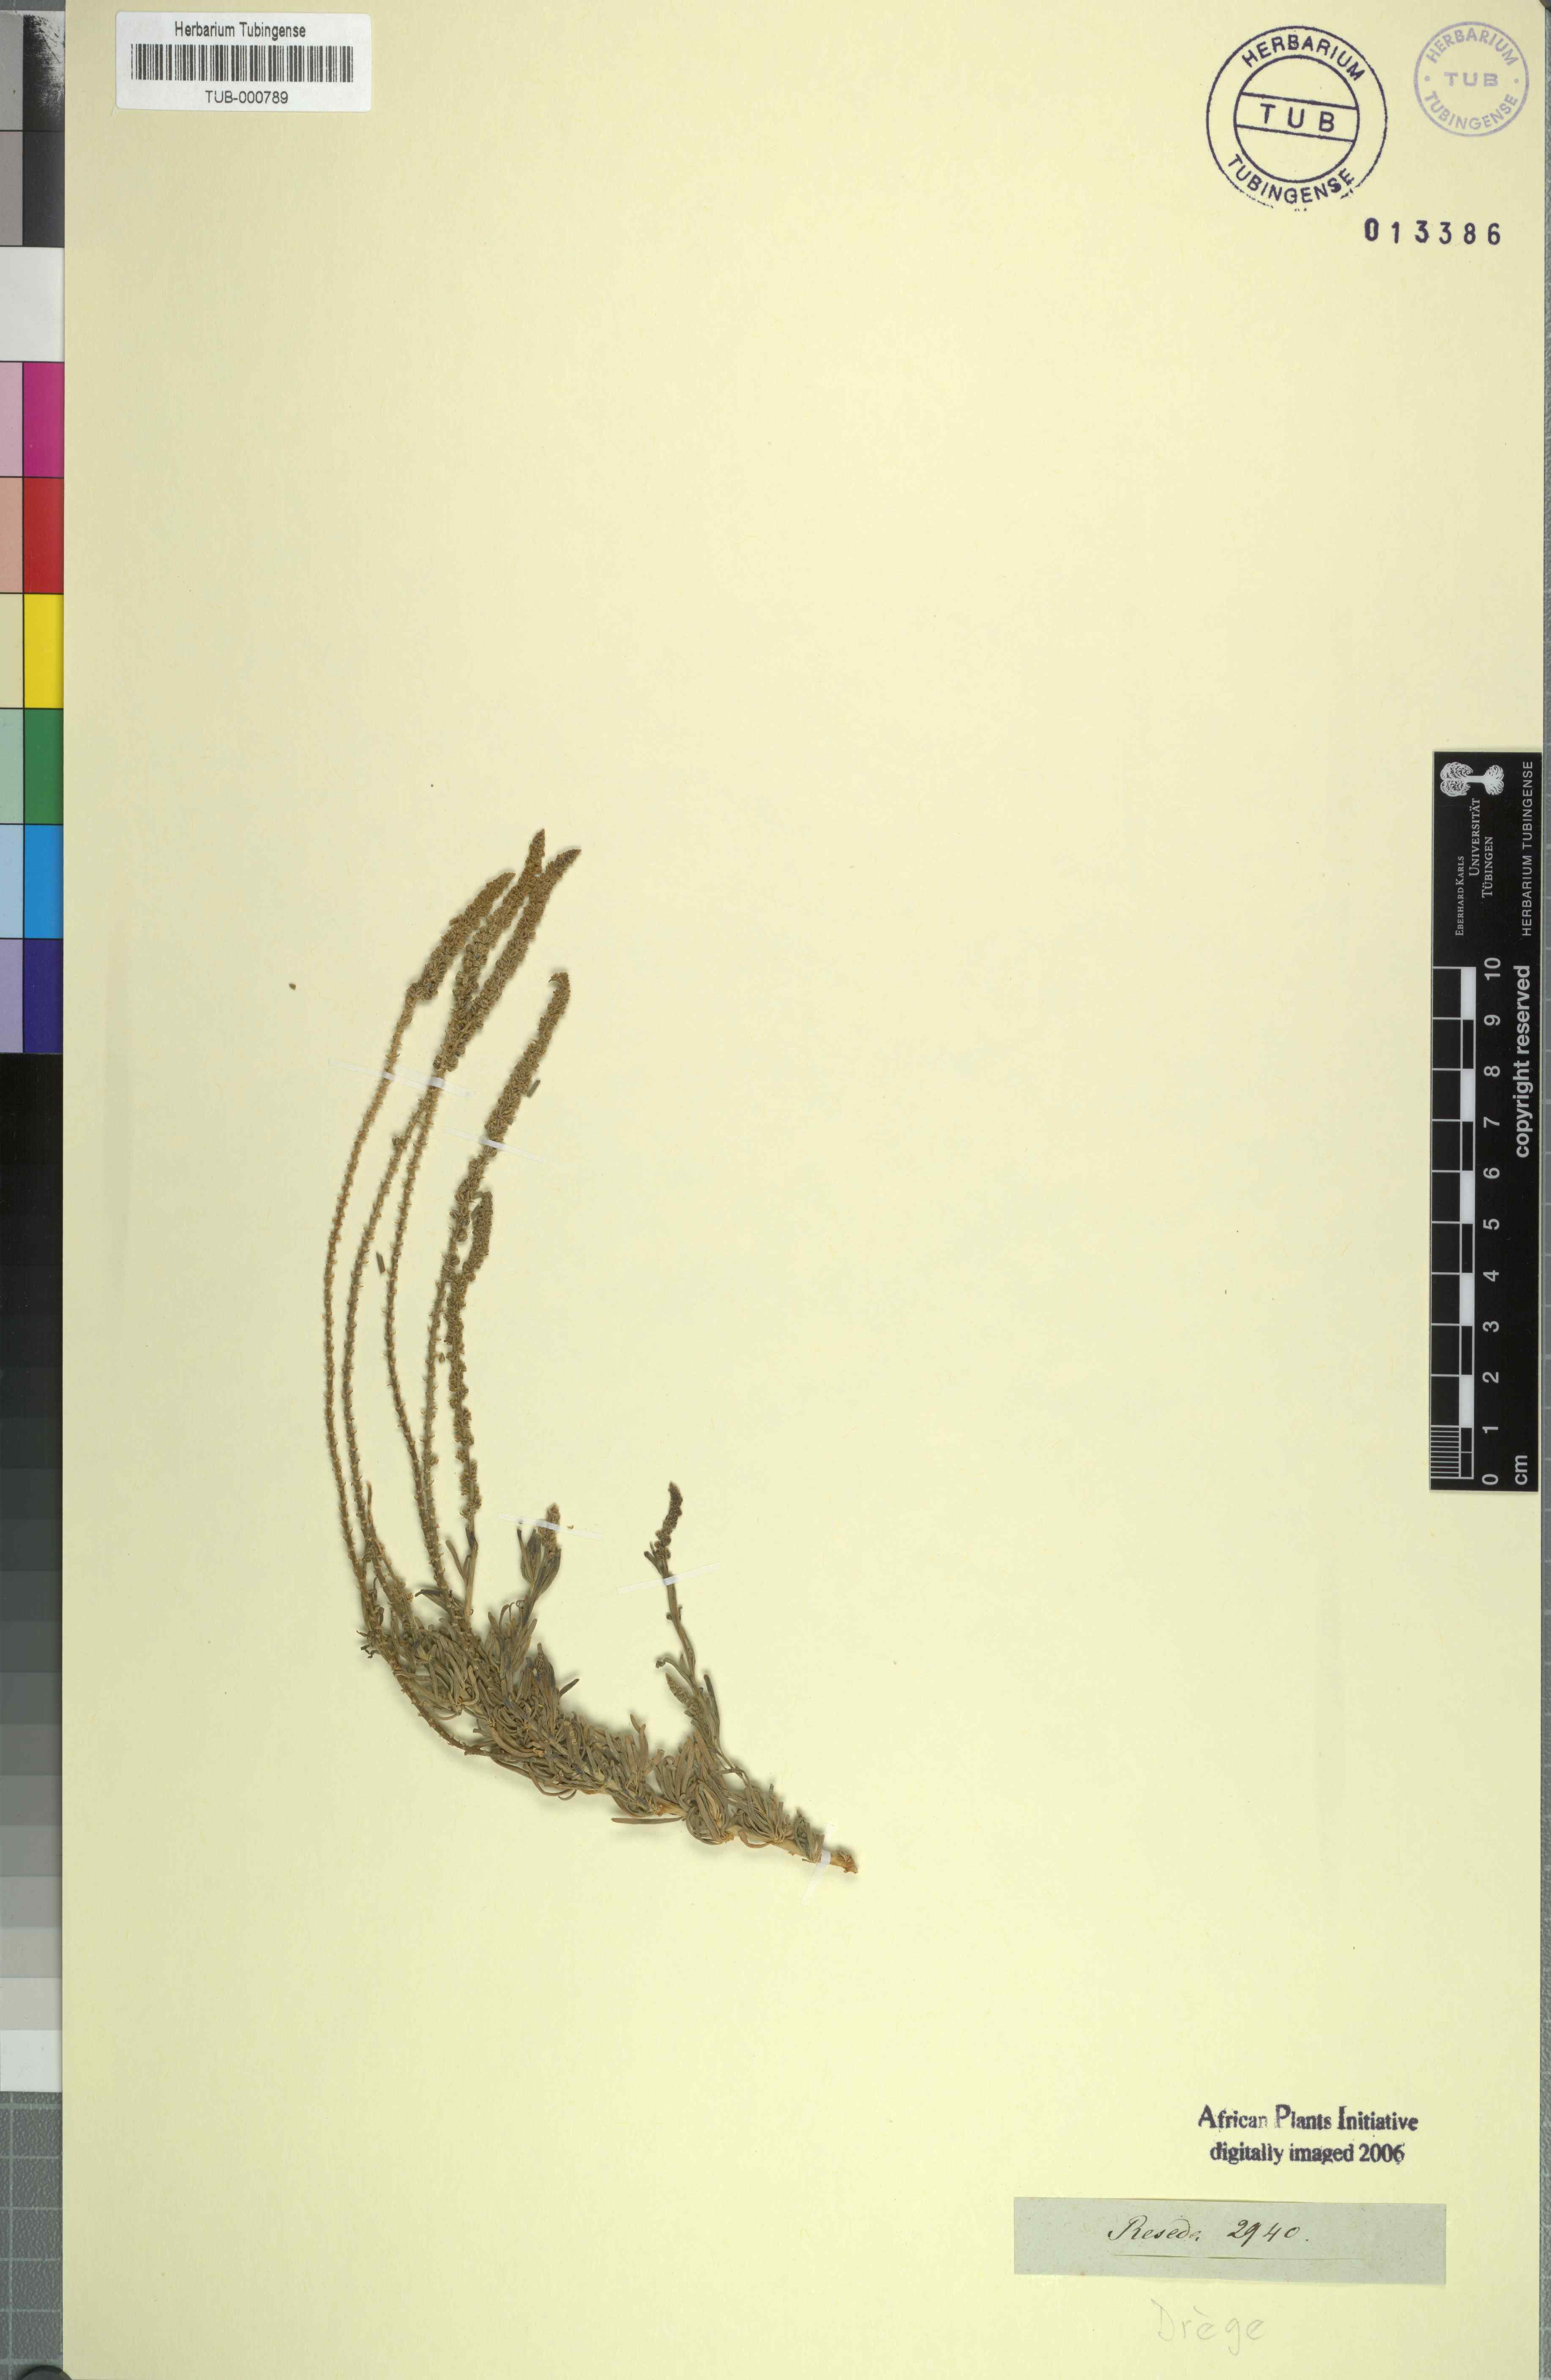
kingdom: Plantae
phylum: Tracheophyta
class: Magnoliopsida
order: Brassicales
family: Resedaceae
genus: Reseda
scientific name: Reseda
